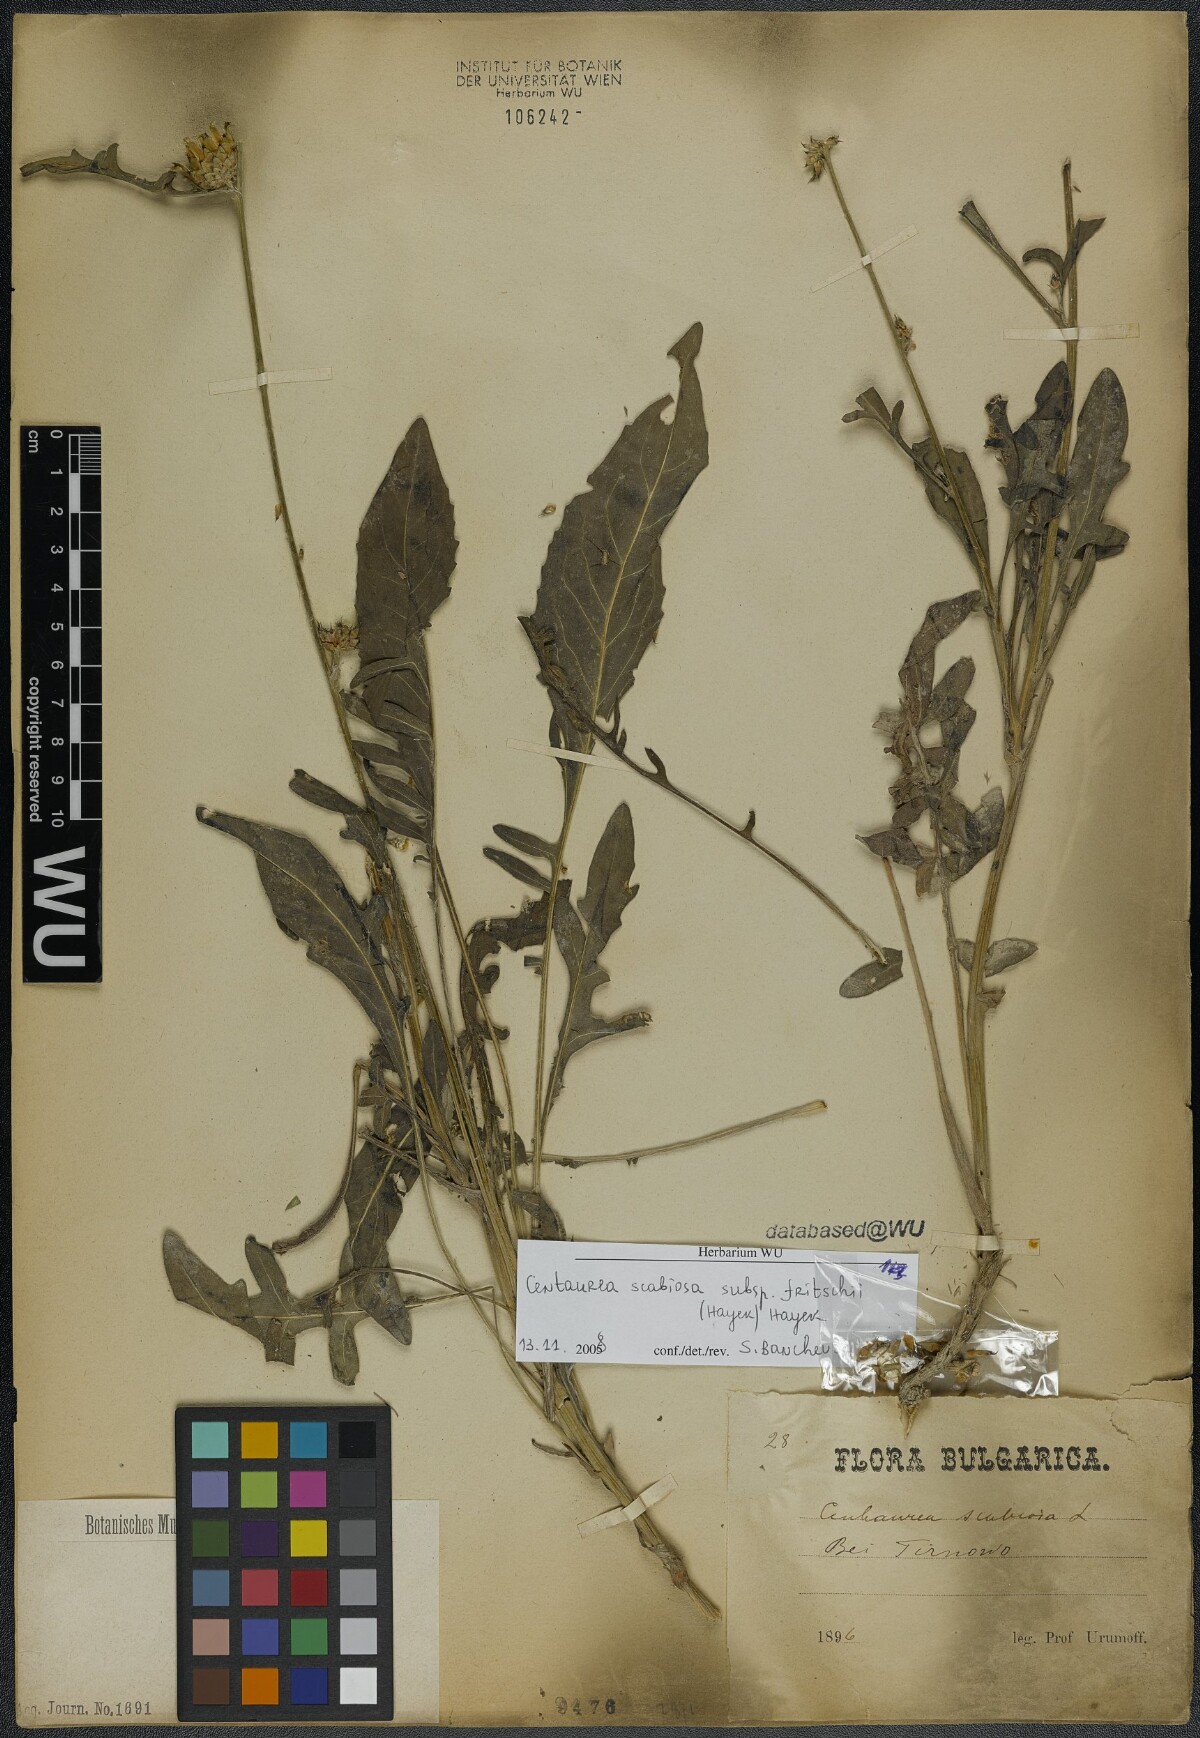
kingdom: Plantae
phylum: Tracheophyta
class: Magnoliopsida
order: Asterales
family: Asteraceae
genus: Centaurea
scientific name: Centaurea scabiosa
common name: Greater knapweed
